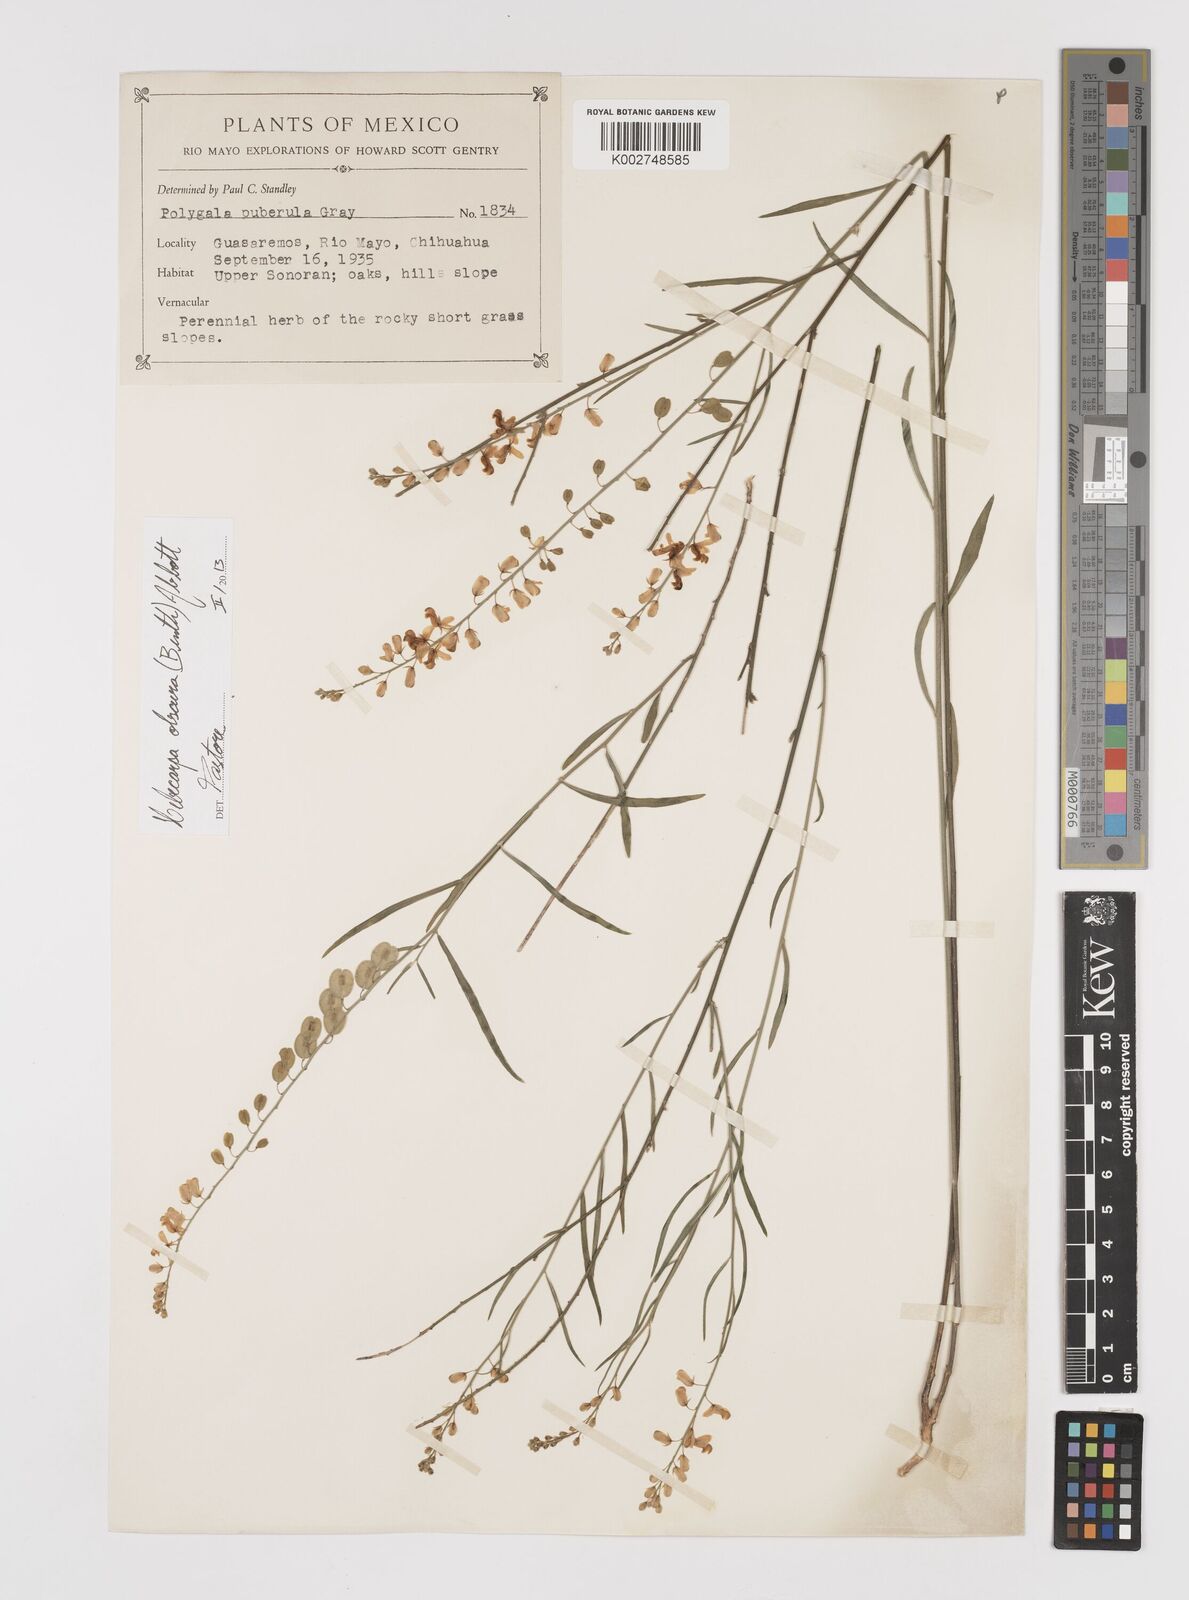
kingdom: Plantae
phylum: Tracheophyta
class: Magnoliopsida
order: Fabales
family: Polygalaceae
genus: Hebecarpa
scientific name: Hebecarpa obscura
